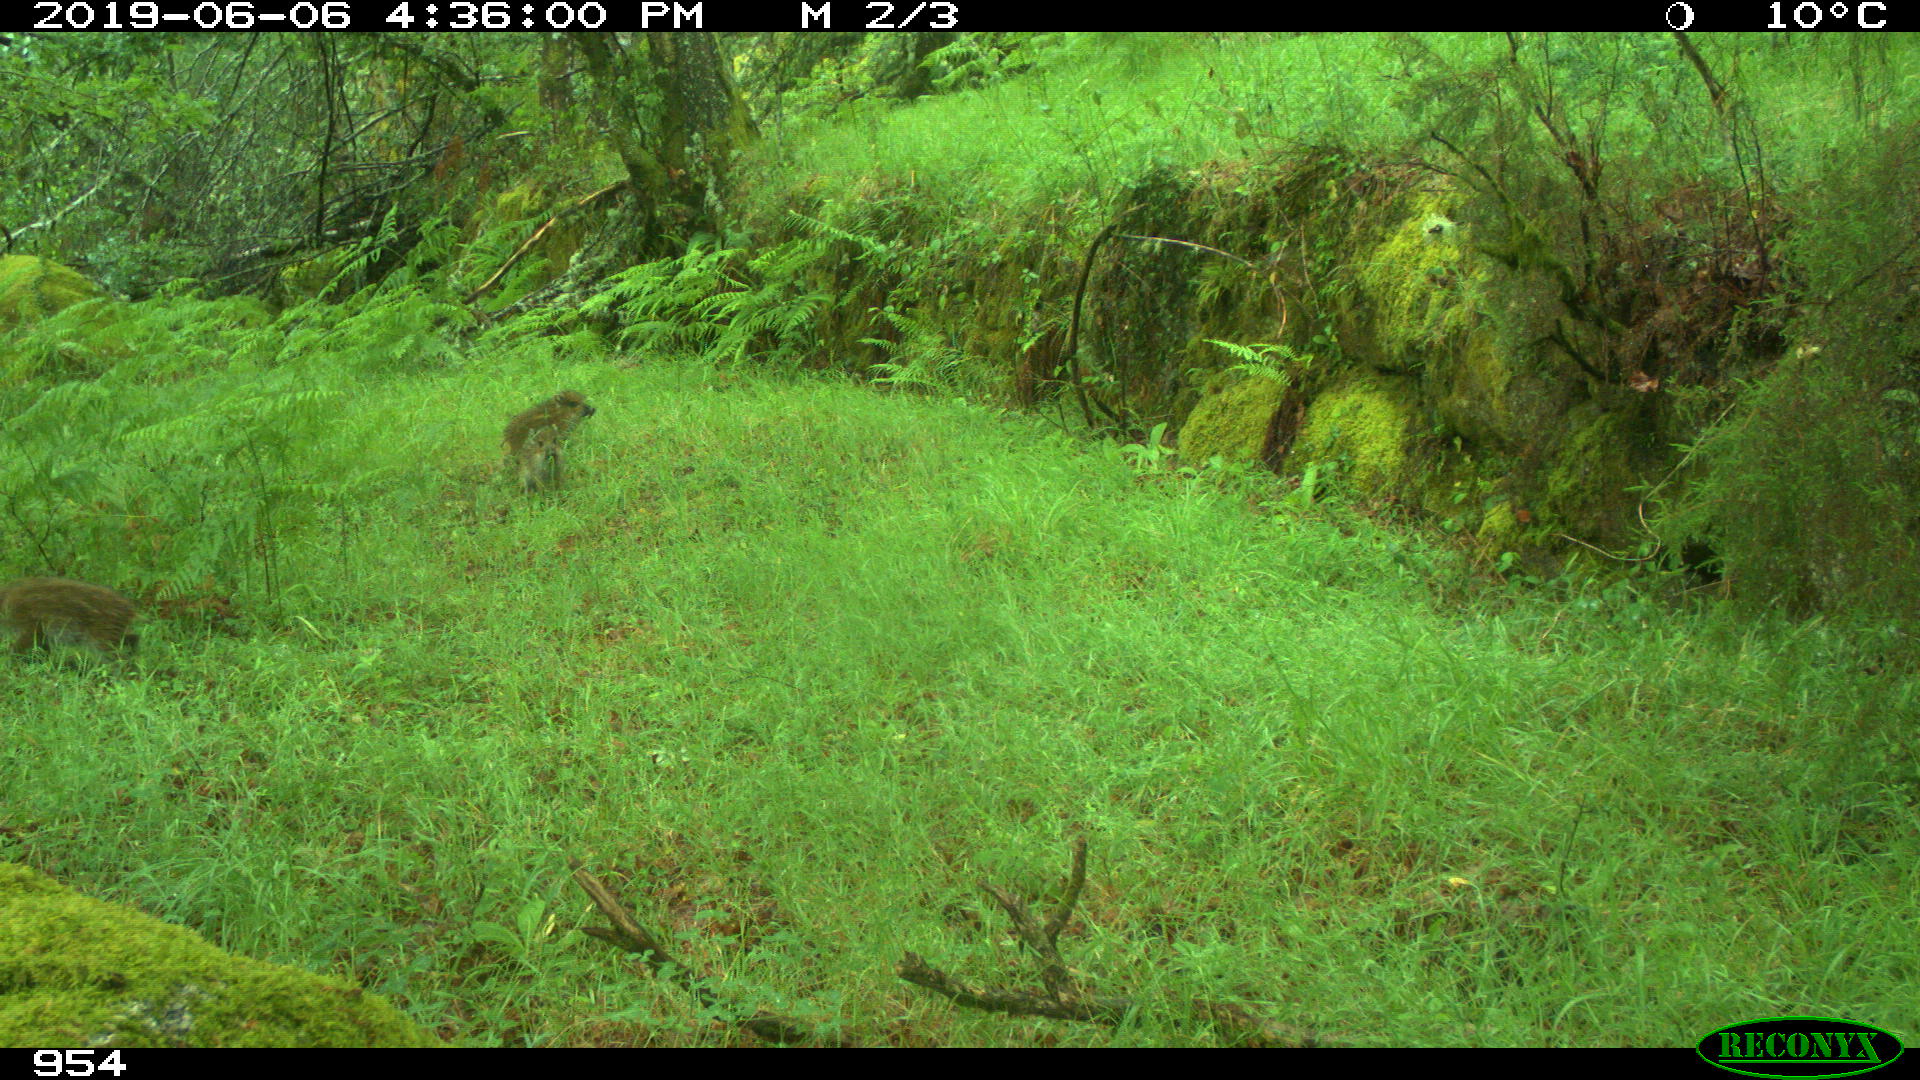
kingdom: Animalia
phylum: Chordata
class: Mammalia
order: Artiodactyla
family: Suidae
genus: Sus
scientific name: Sus scrofa
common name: Wild boar
